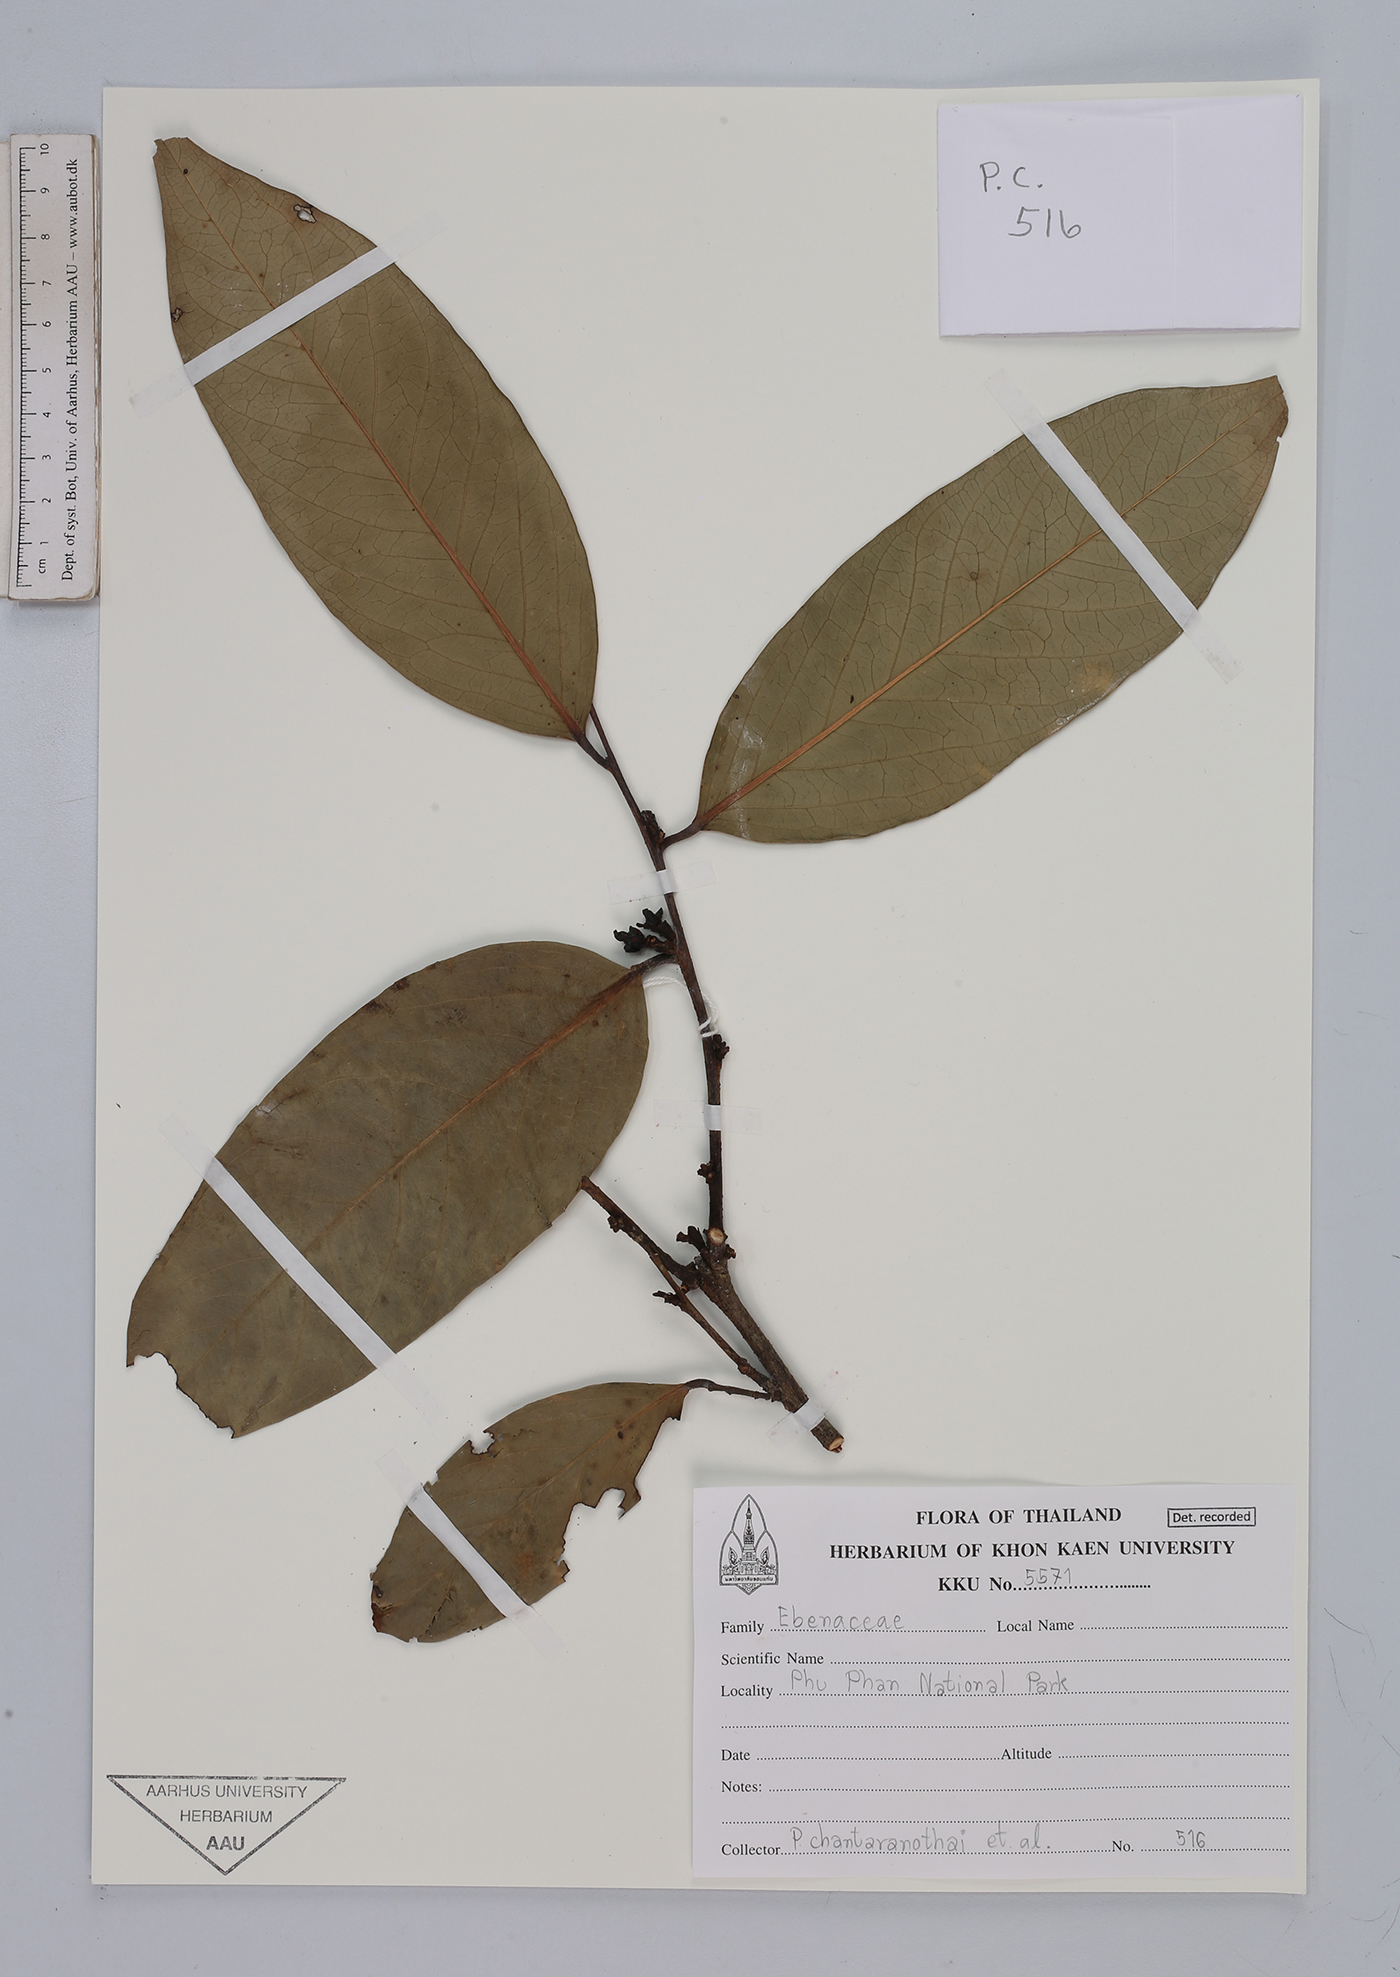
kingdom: Plantae
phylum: Tracheophyta
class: Magnoliopsida
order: Ericales
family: Ebenaceae
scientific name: Ebenaceae
